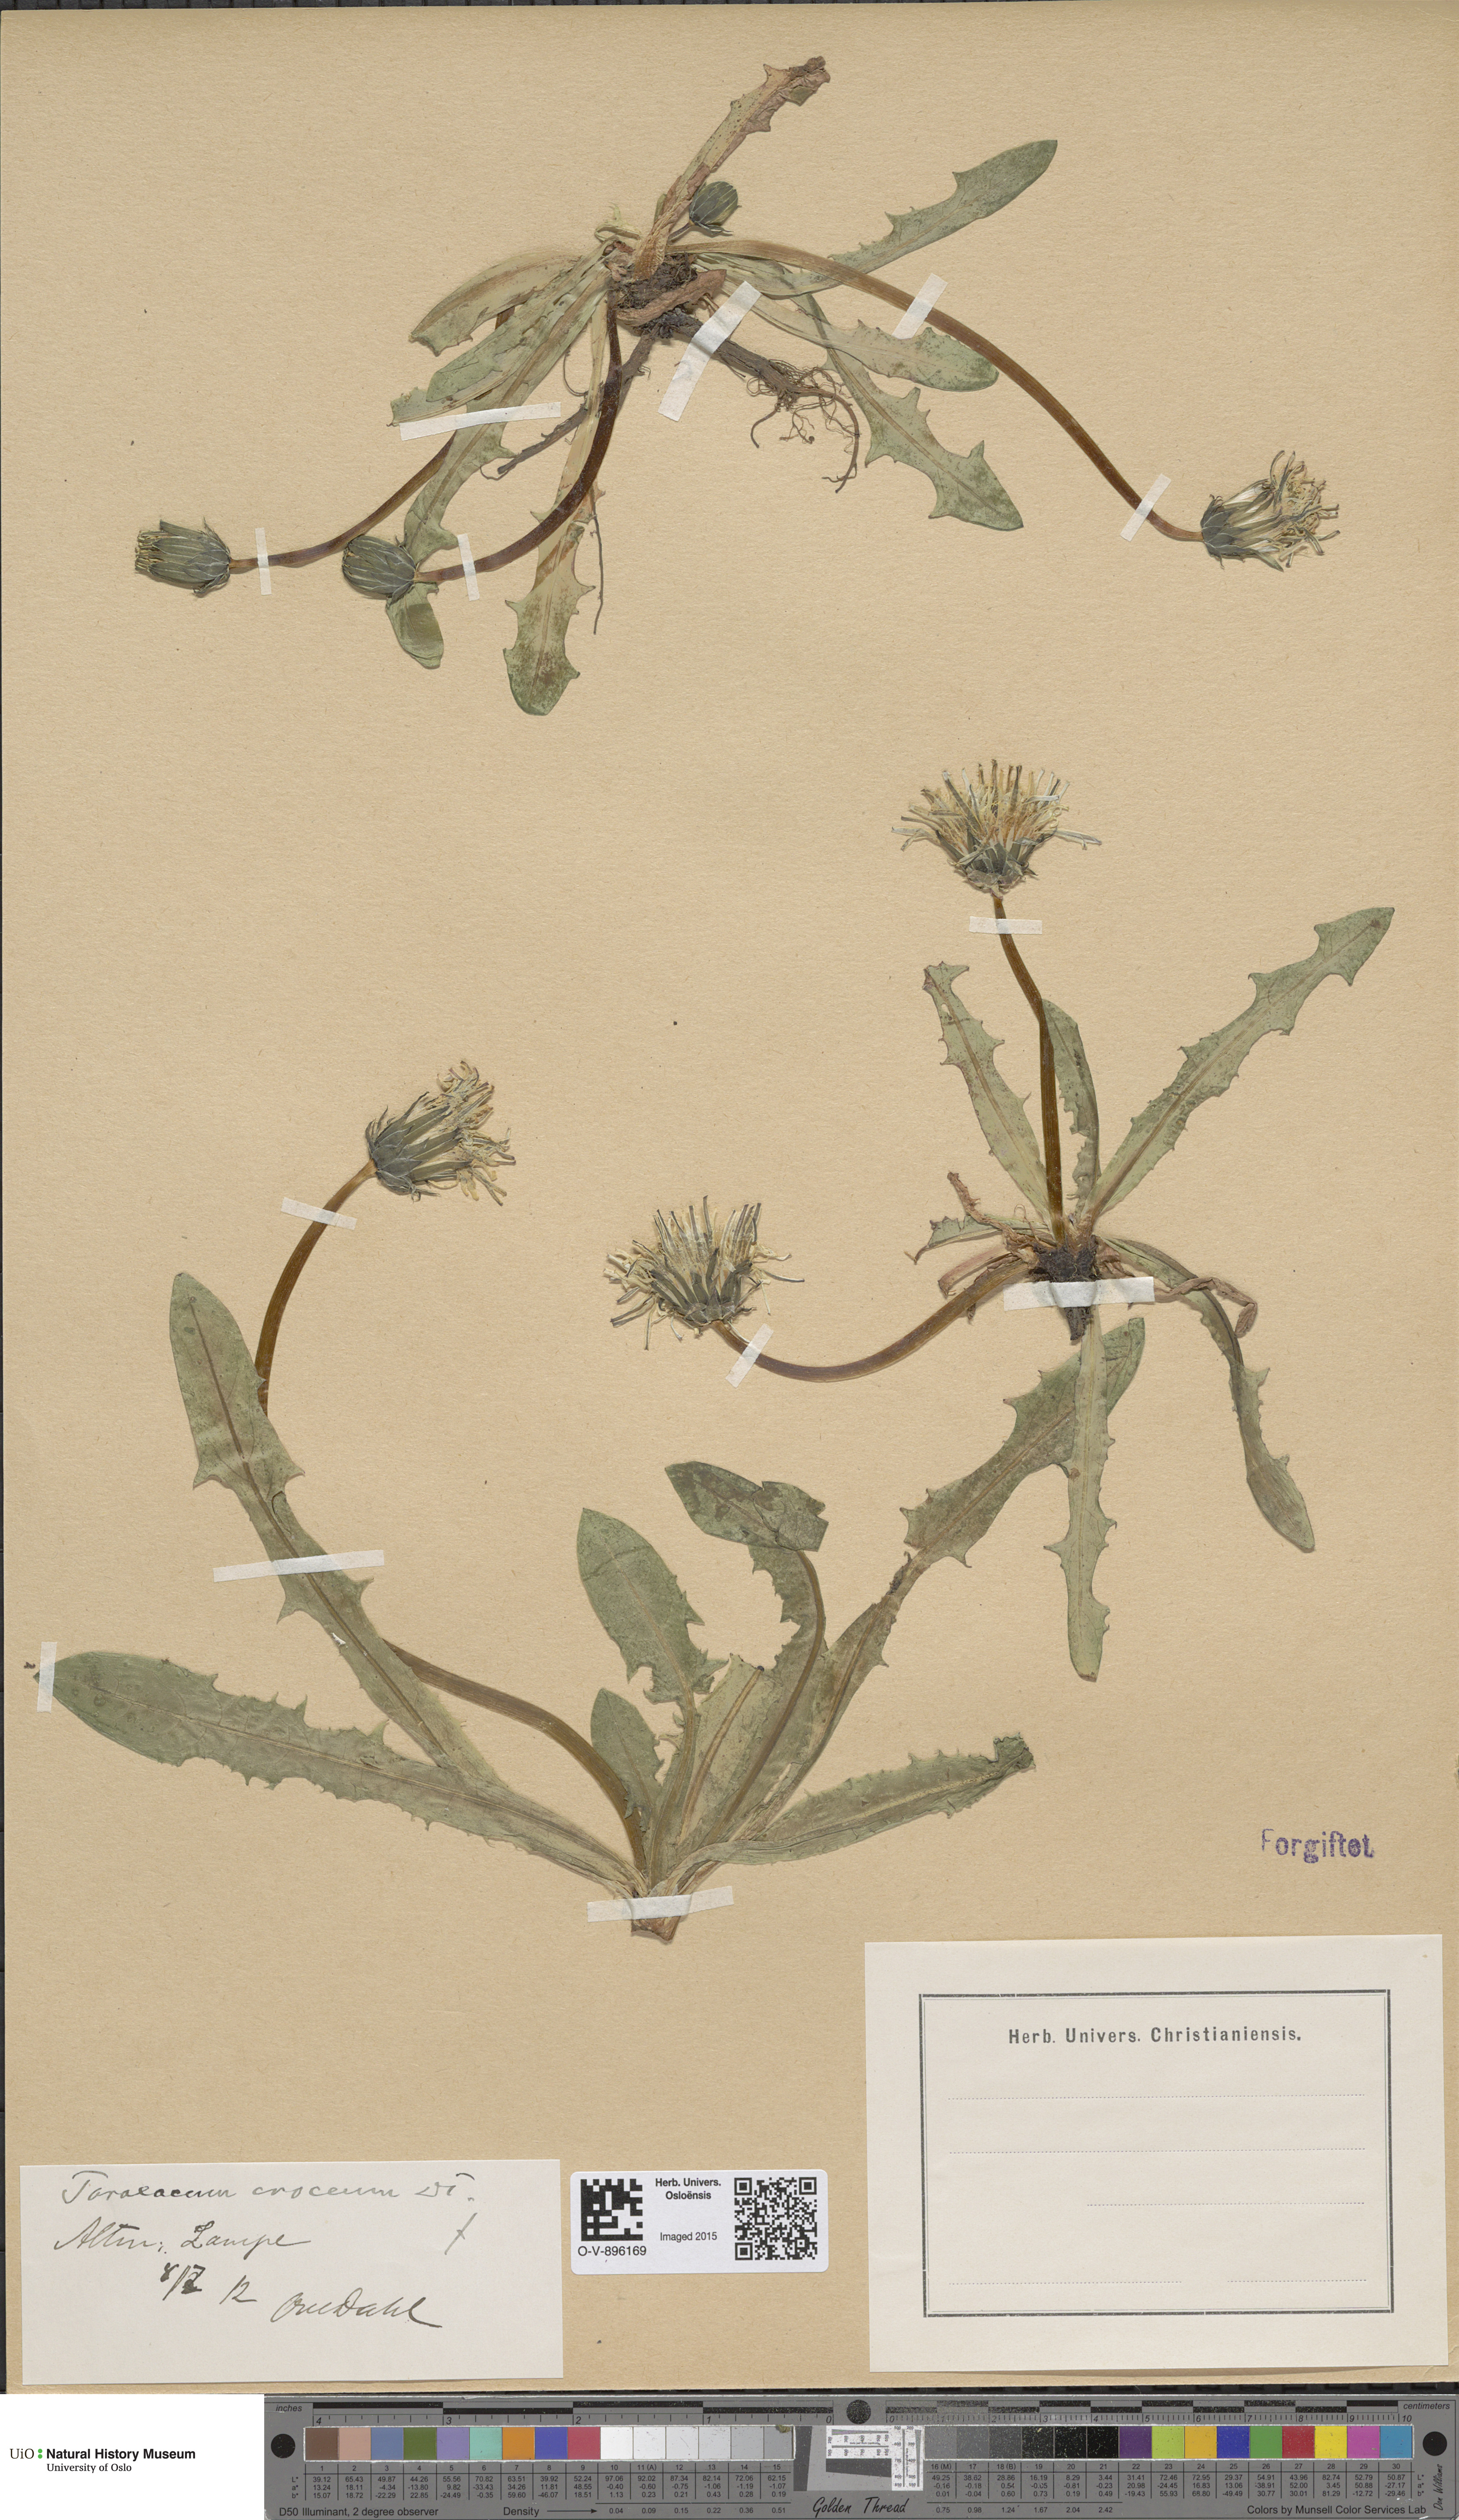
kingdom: Plantae
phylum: Tracheophyta
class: Magnoliopsida
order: Asterales
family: Asteraceae
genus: Taraxacum
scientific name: Taraxacum croceum
